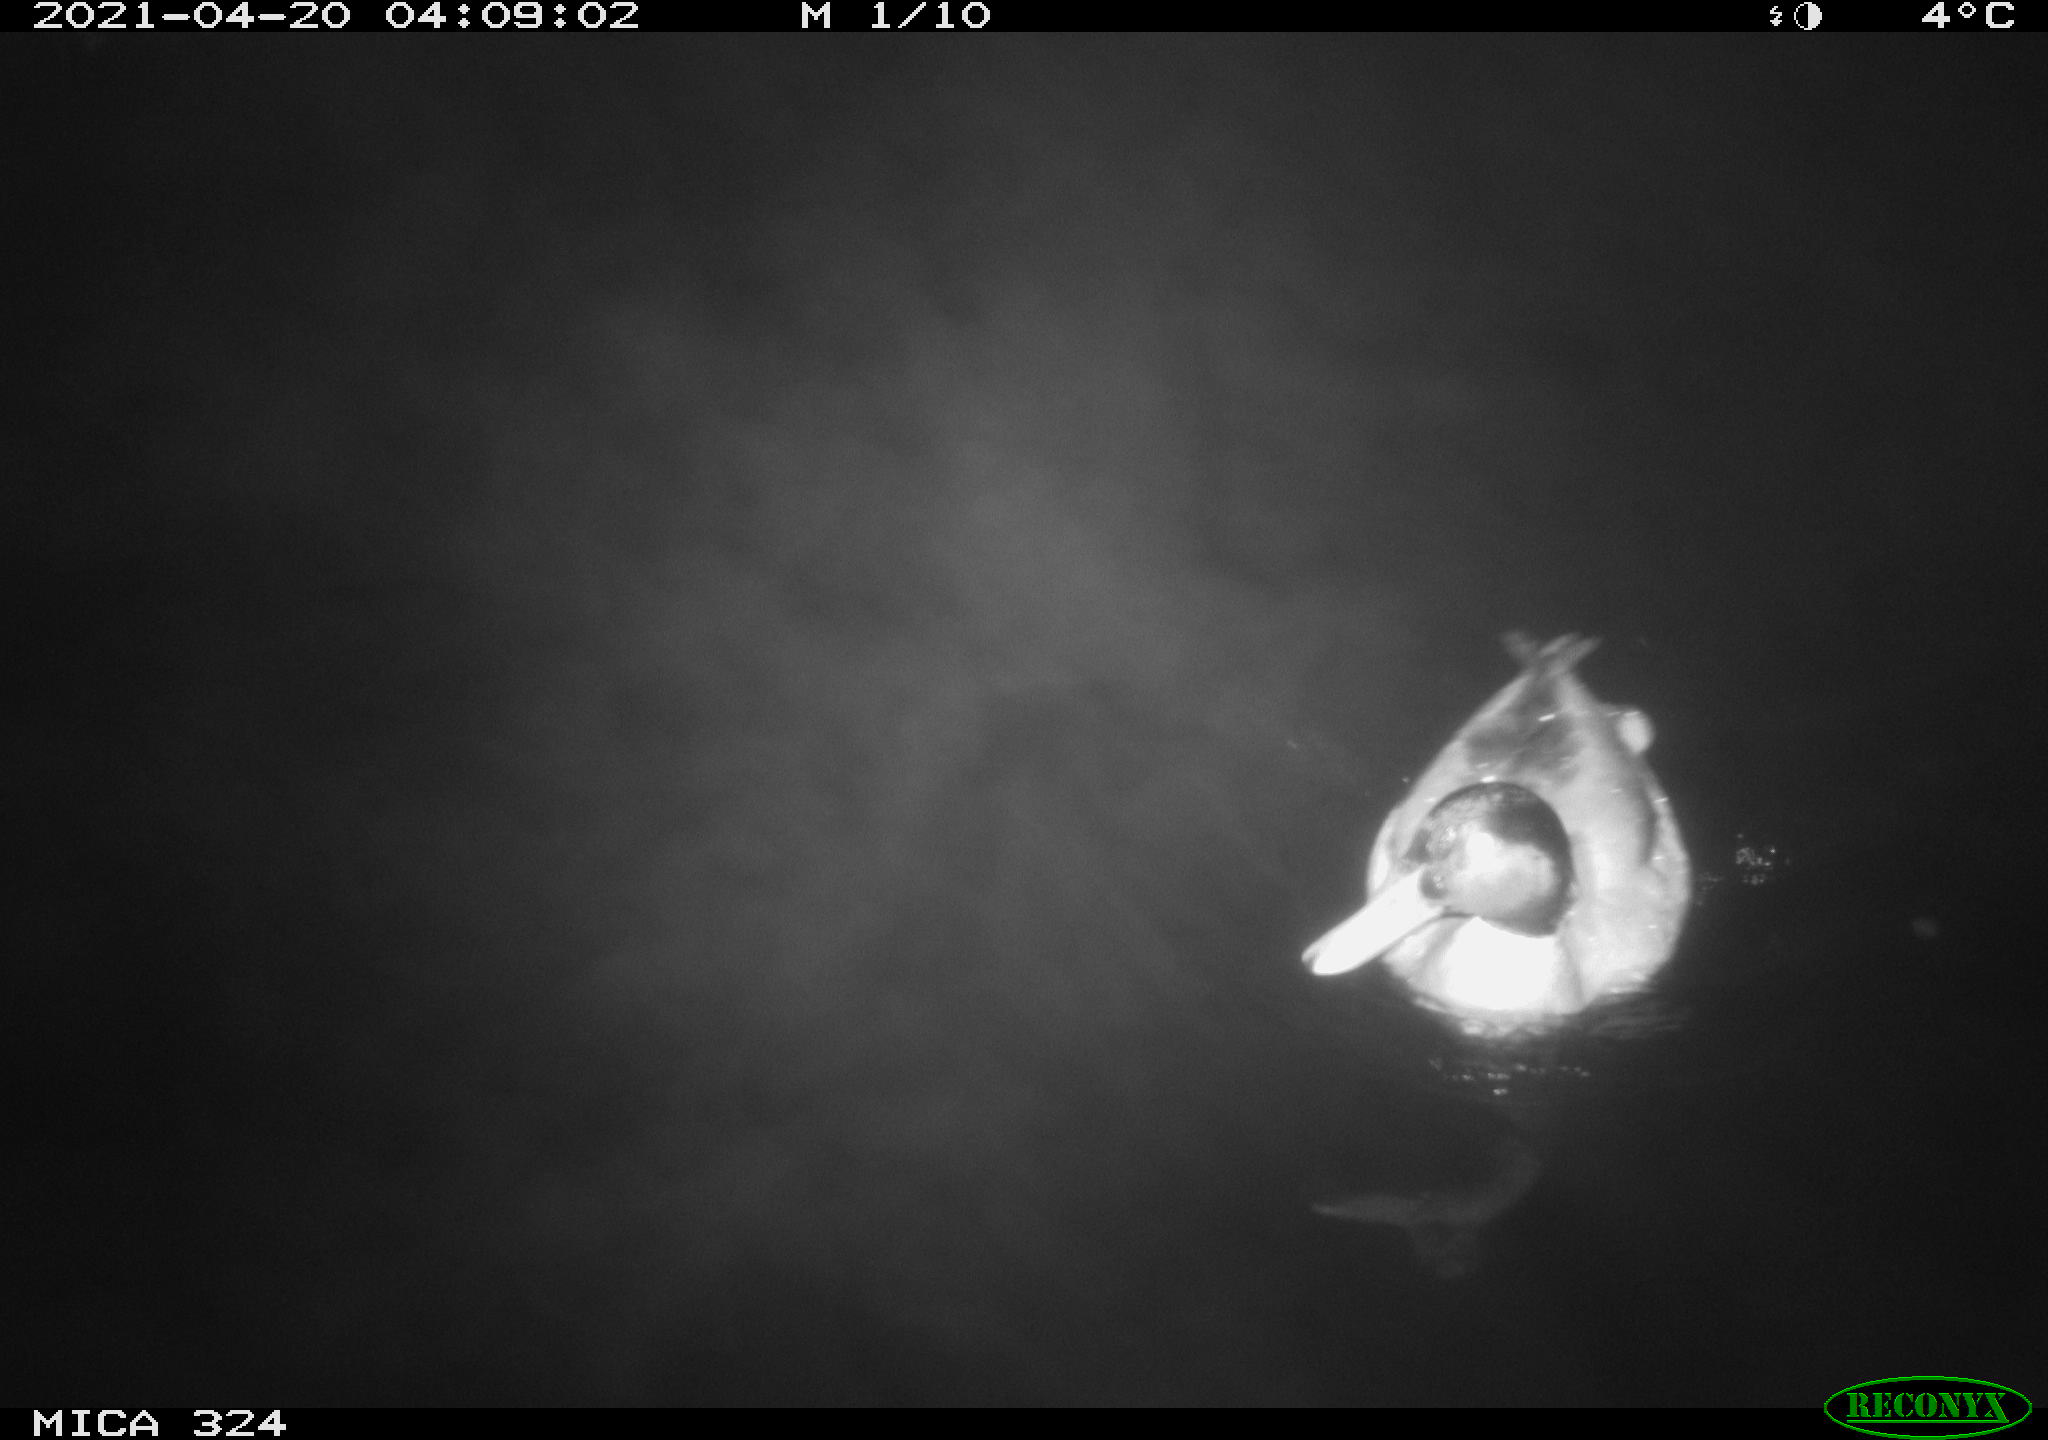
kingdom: Animalia
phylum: Chordata
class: Aves
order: Anseriformes
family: Anatidae
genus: Anas
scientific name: Anas platyrhynchos
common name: Mallard
